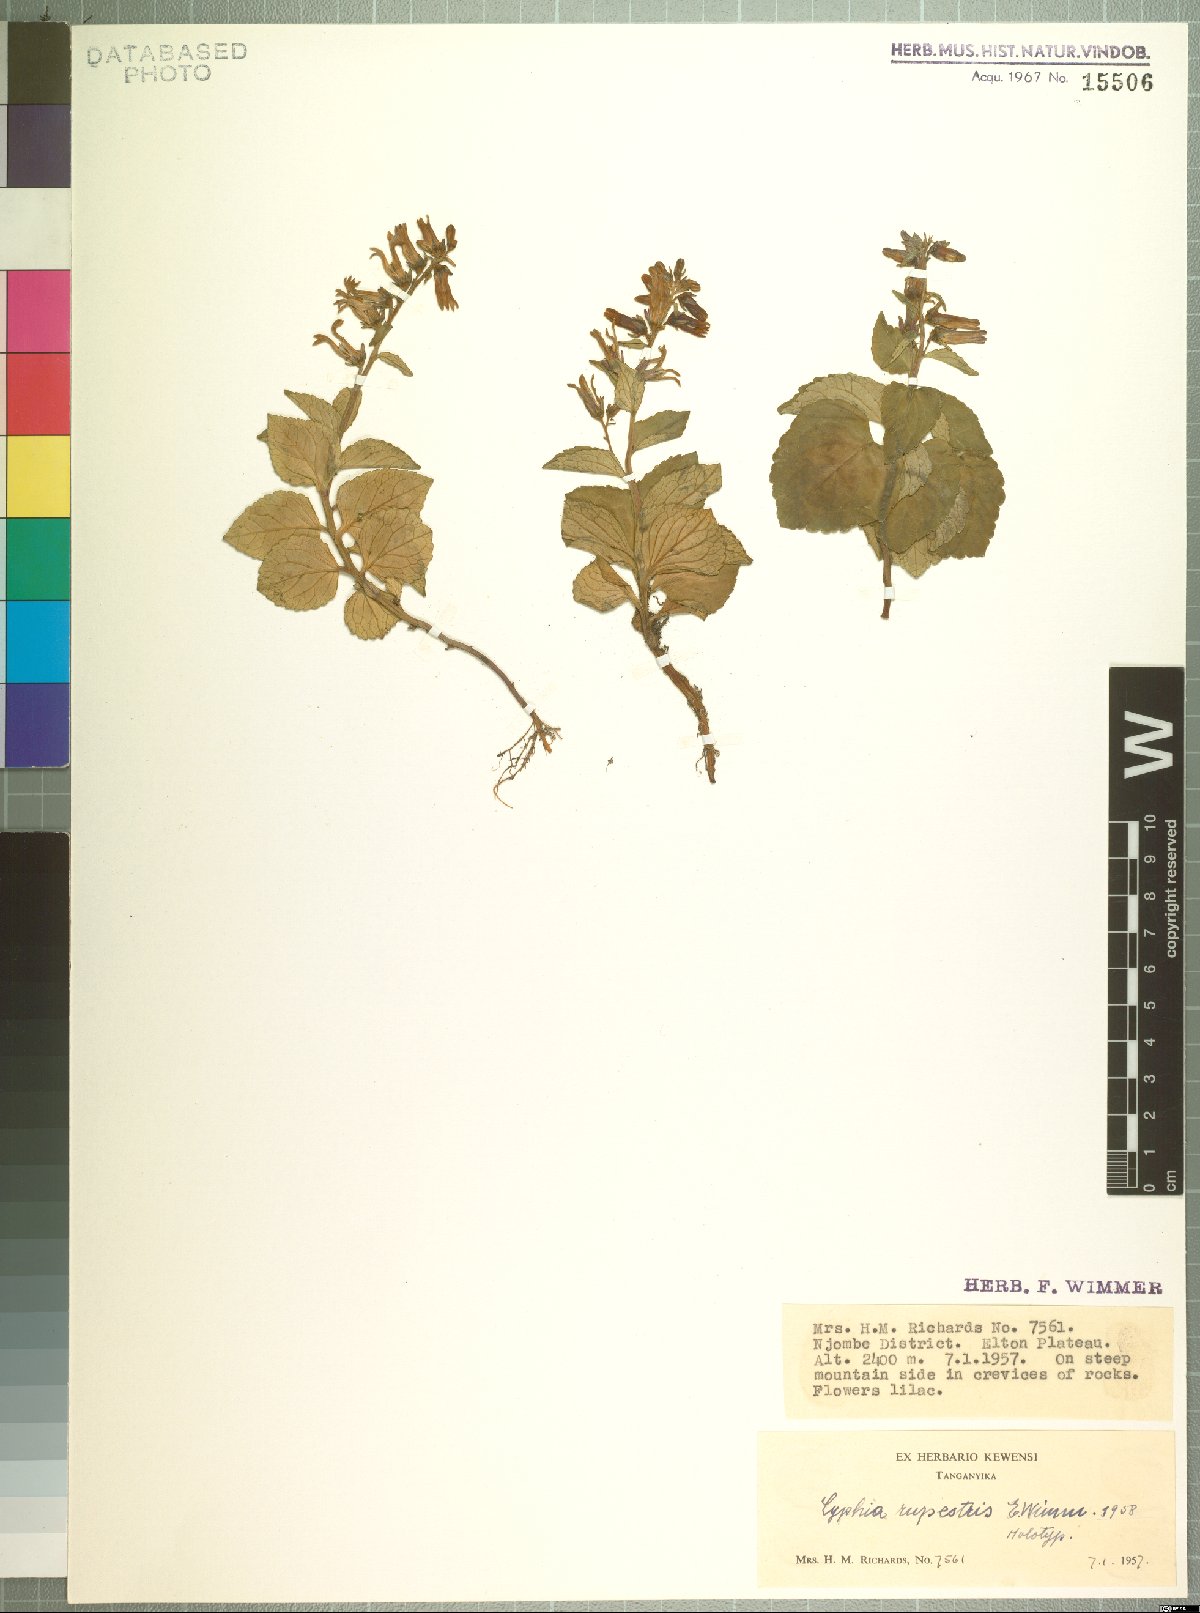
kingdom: Plantae
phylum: Tracheophyta
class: Magnoliopsida
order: Asterales
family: Campanulaceae
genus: Cyphia
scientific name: Cyphia rupestris
